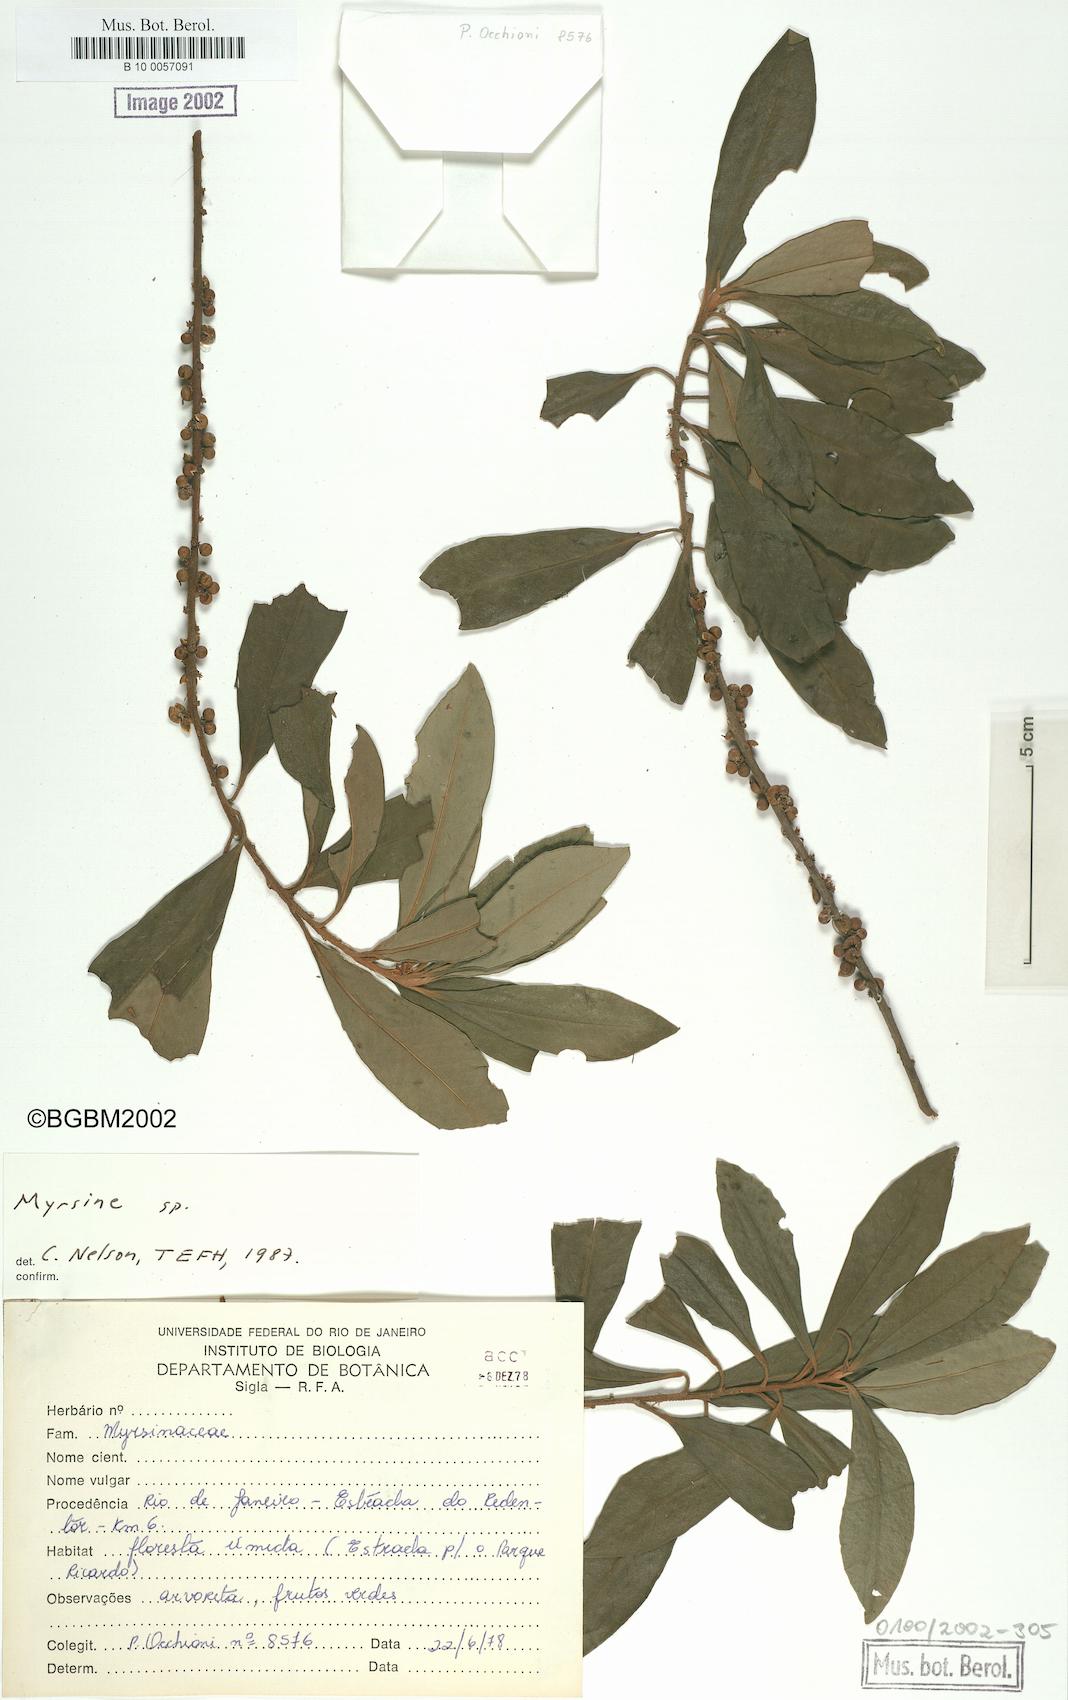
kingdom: Plantae
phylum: Tracheophyta
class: Magnoliopsida
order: Ericales
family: Primulaceae
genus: Myrsine
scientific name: Myrsine
